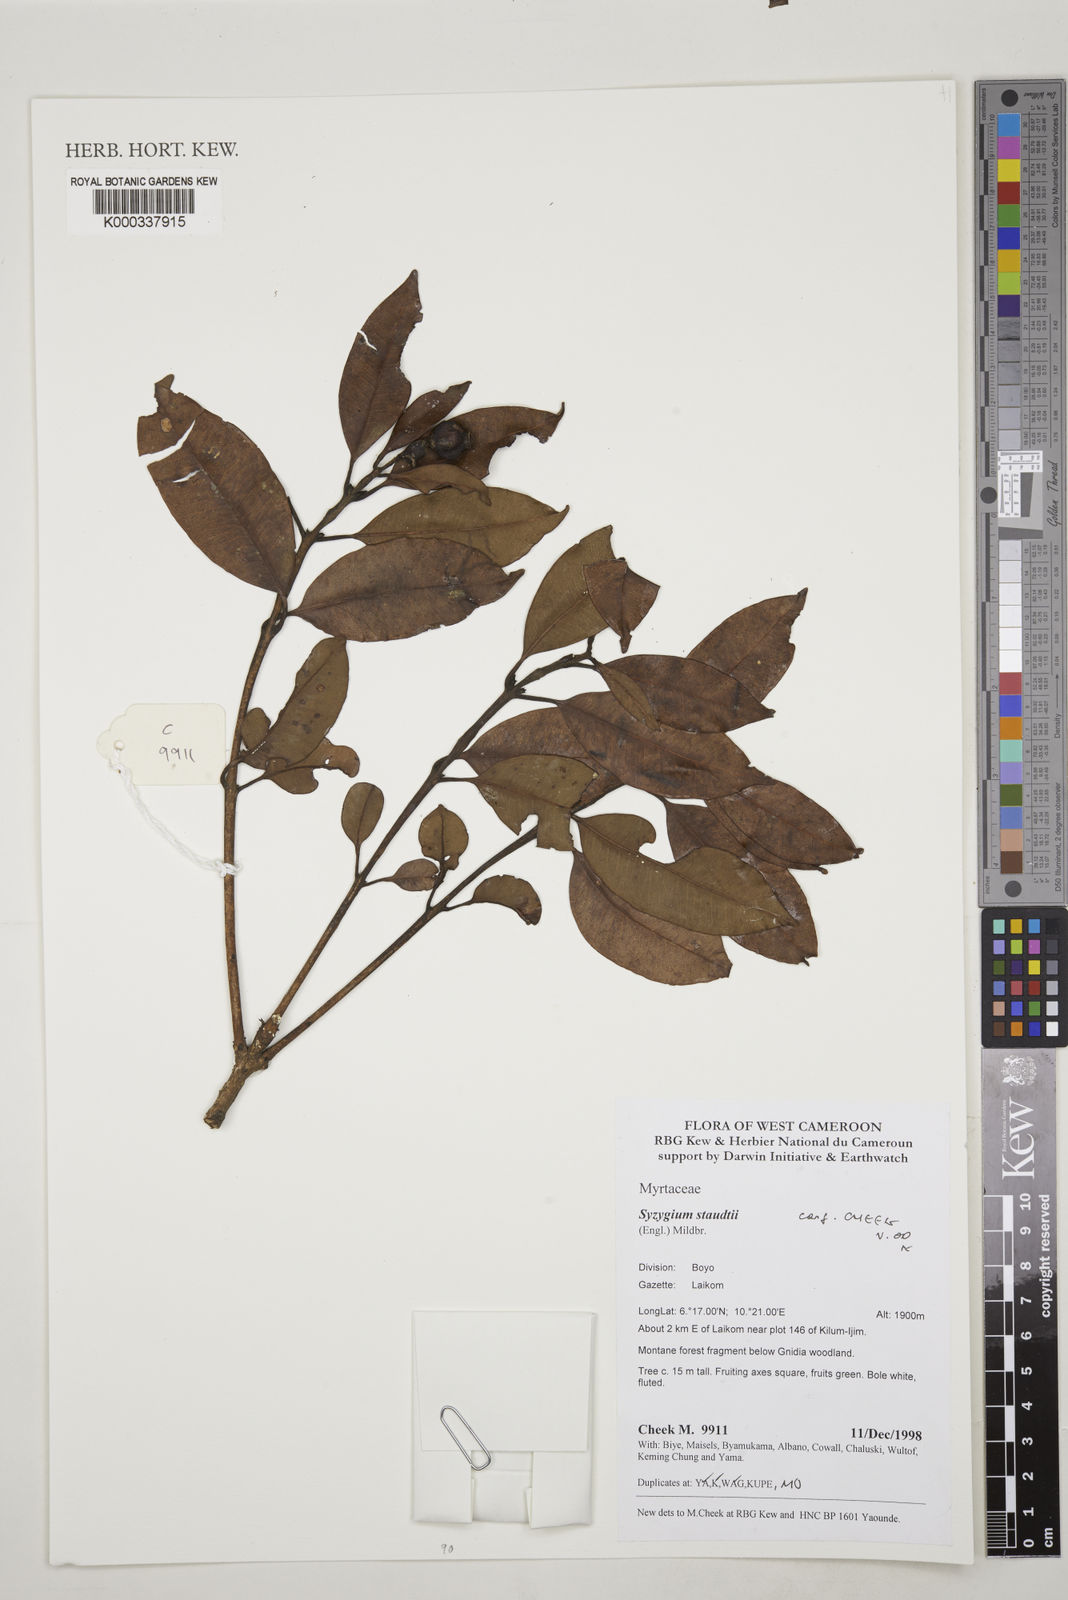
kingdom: Plantae
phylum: Tracheophyta
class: Magnoliopsida
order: Myrtales
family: Myrtaceae
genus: Syzygium
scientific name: Syzygium staudtii
